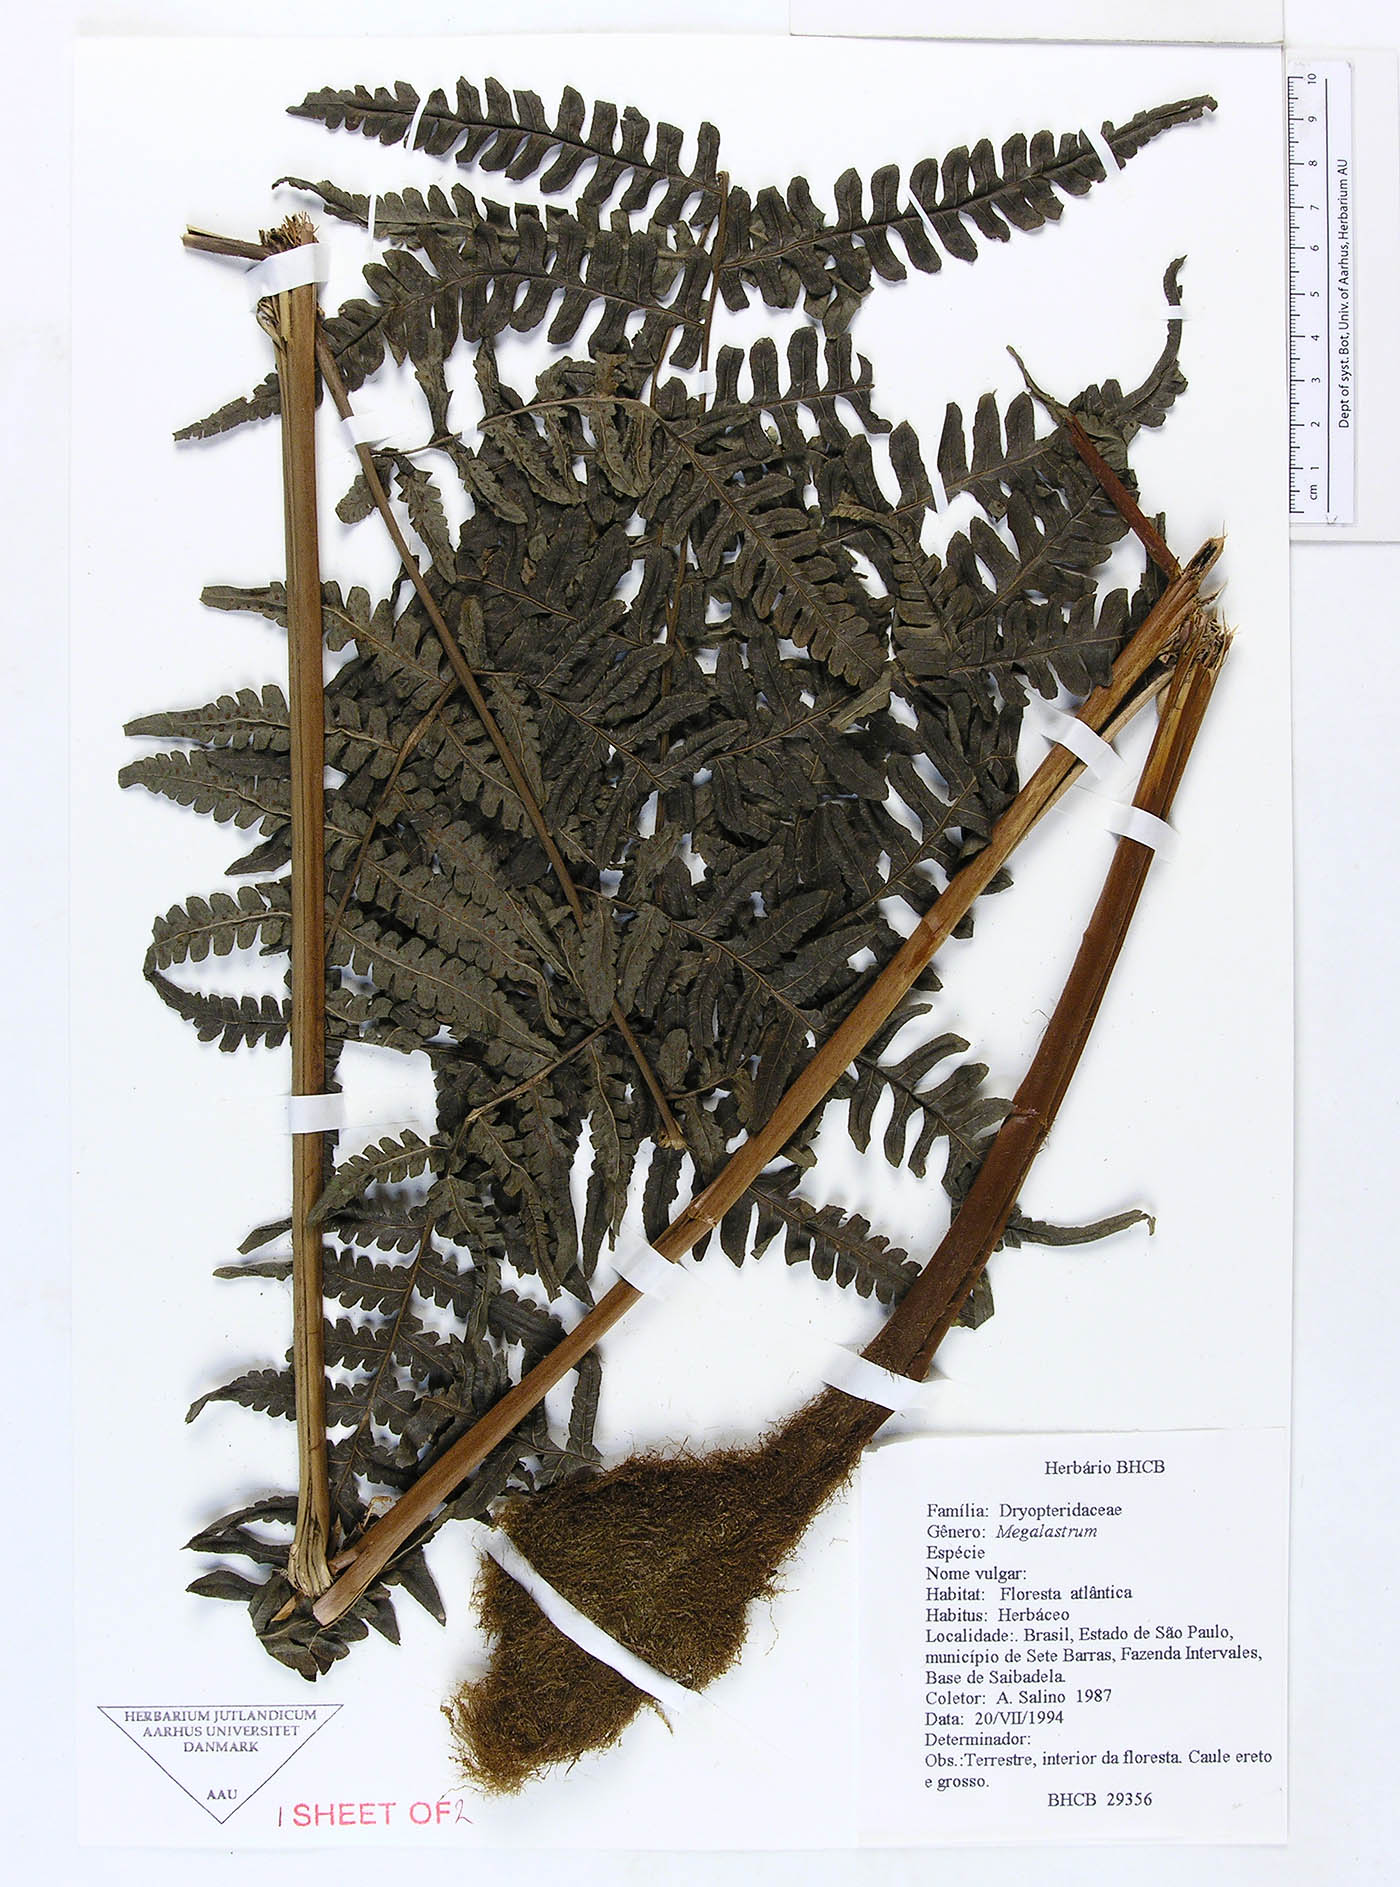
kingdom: Plantae
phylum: Tracheophyta
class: Polypodiopsida
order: Polypodiales
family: Dryopteridaceae
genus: Megalastrum
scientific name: Megalastrum brevipubens
